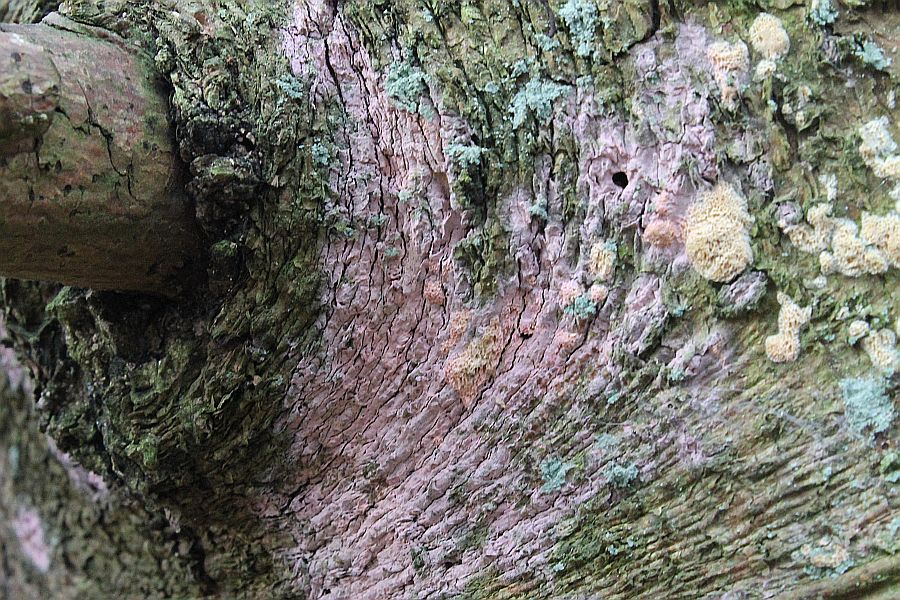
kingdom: Fungi
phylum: Basidiomycota
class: Agaricomycetes
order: Cantharellales
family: Tulasnellaceae
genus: Tulasnella
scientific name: Tulasnella violea
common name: violet ballonhinde
